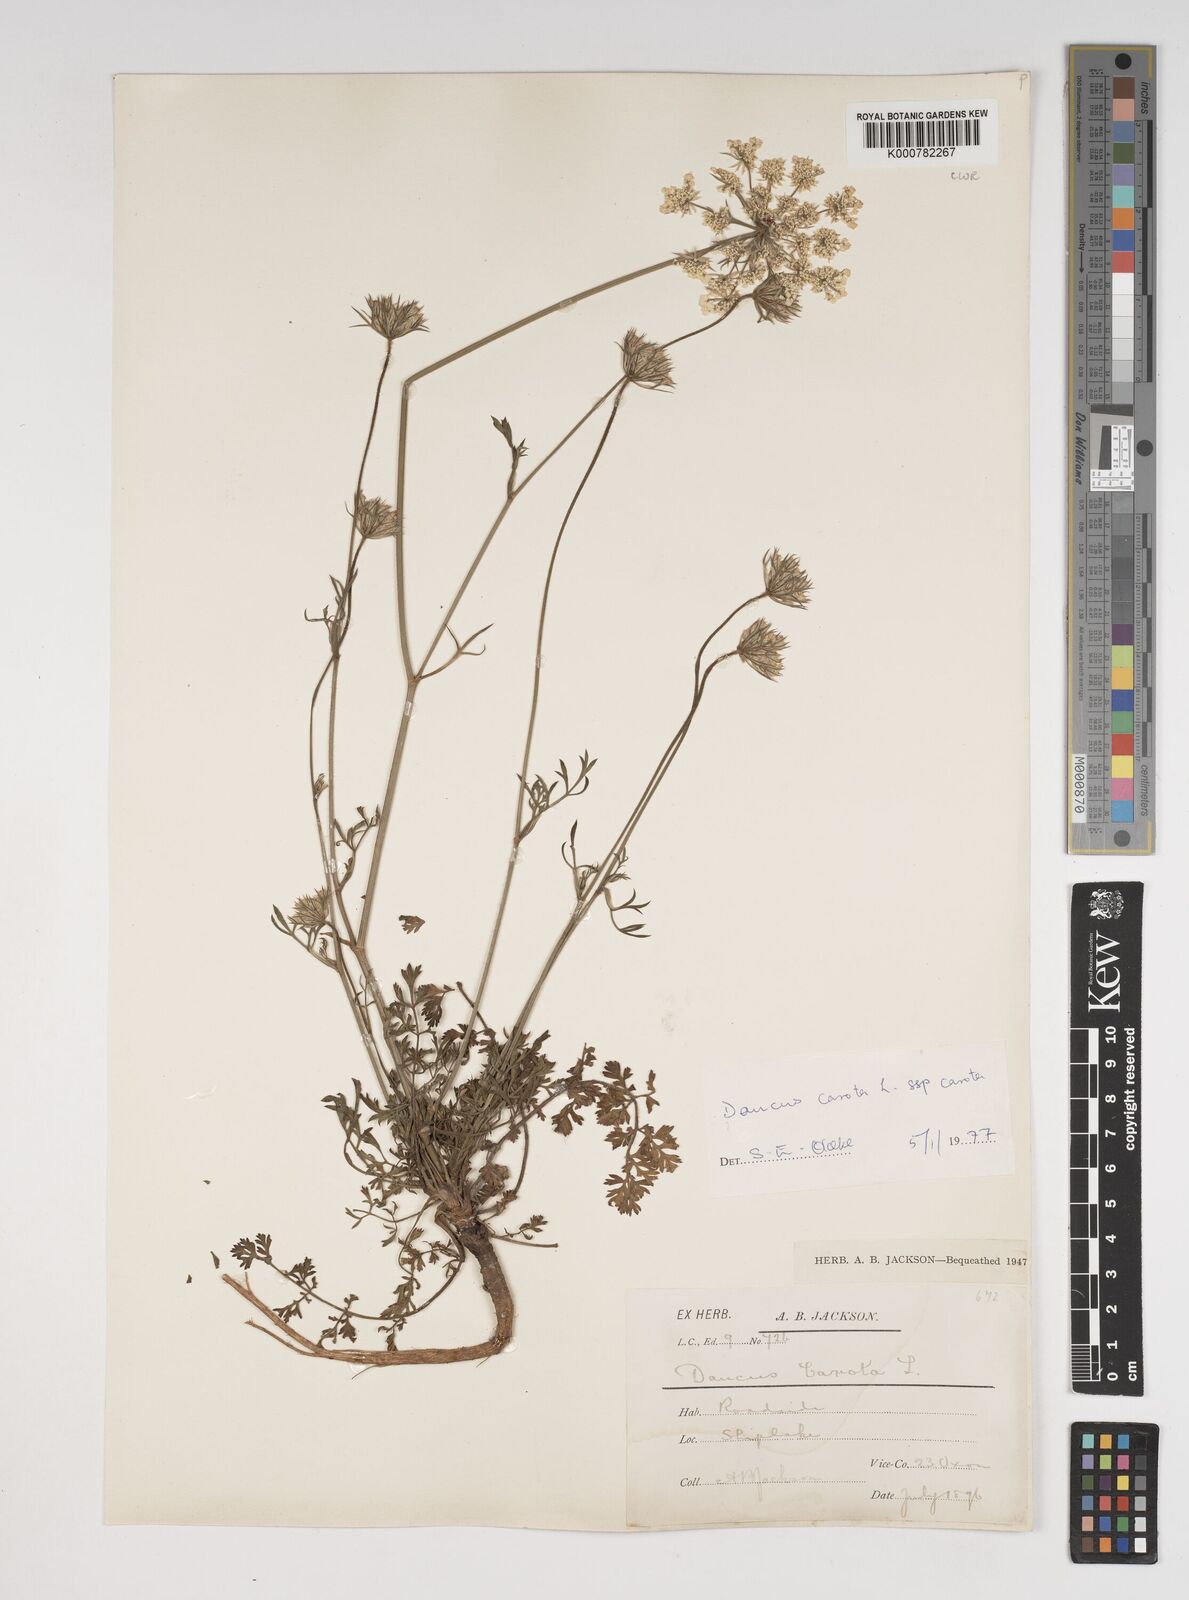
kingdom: Plantae
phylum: Tracheophyta
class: Magnoliopsida
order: Apiales
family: Apiaceae
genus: Daucus
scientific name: Daucus carota
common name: Wild carrot
